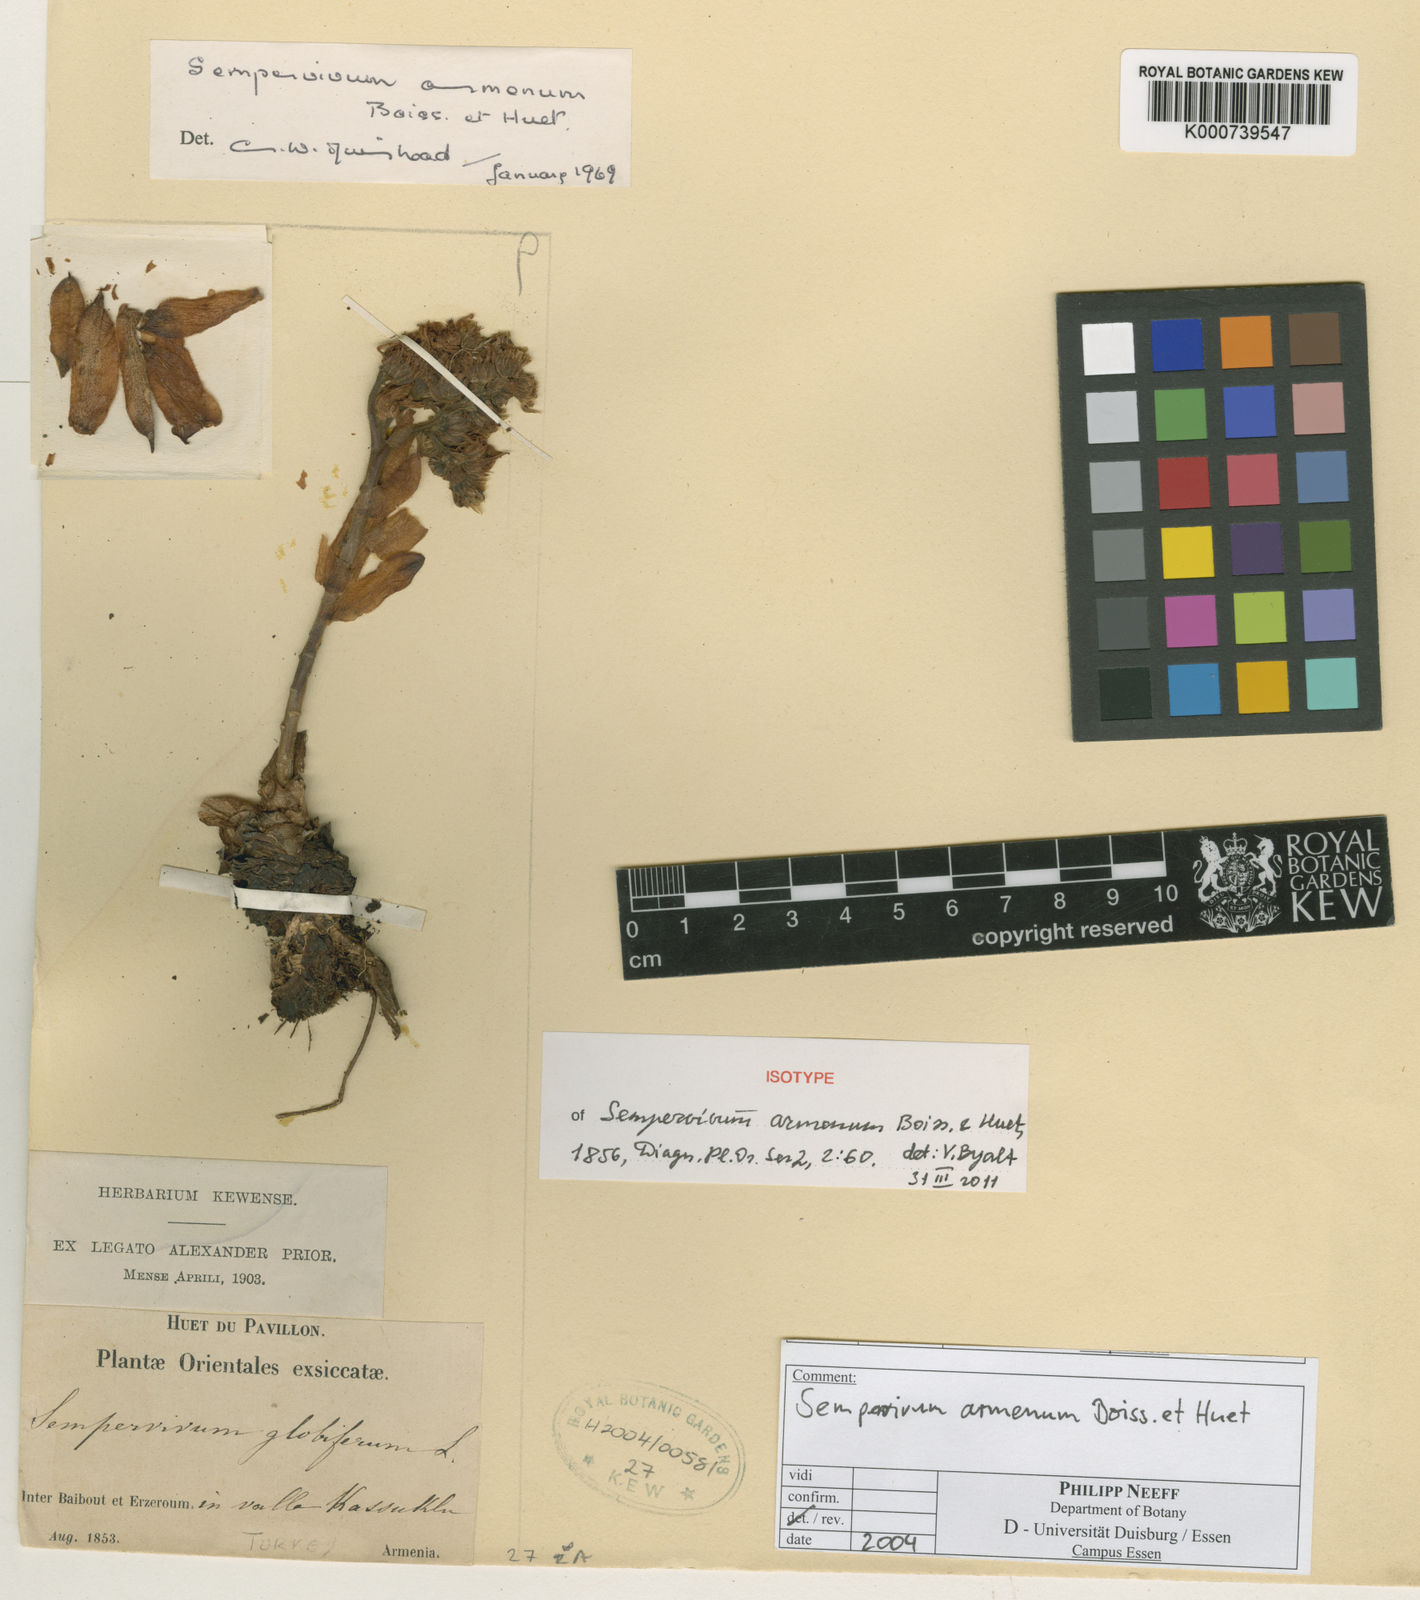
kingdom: Plantae
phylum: Tracheophyta
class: Magnoliopsida
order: Saxifragales
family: Crassulaceae
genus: Sempervivum
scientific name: Sempervivum armenum
